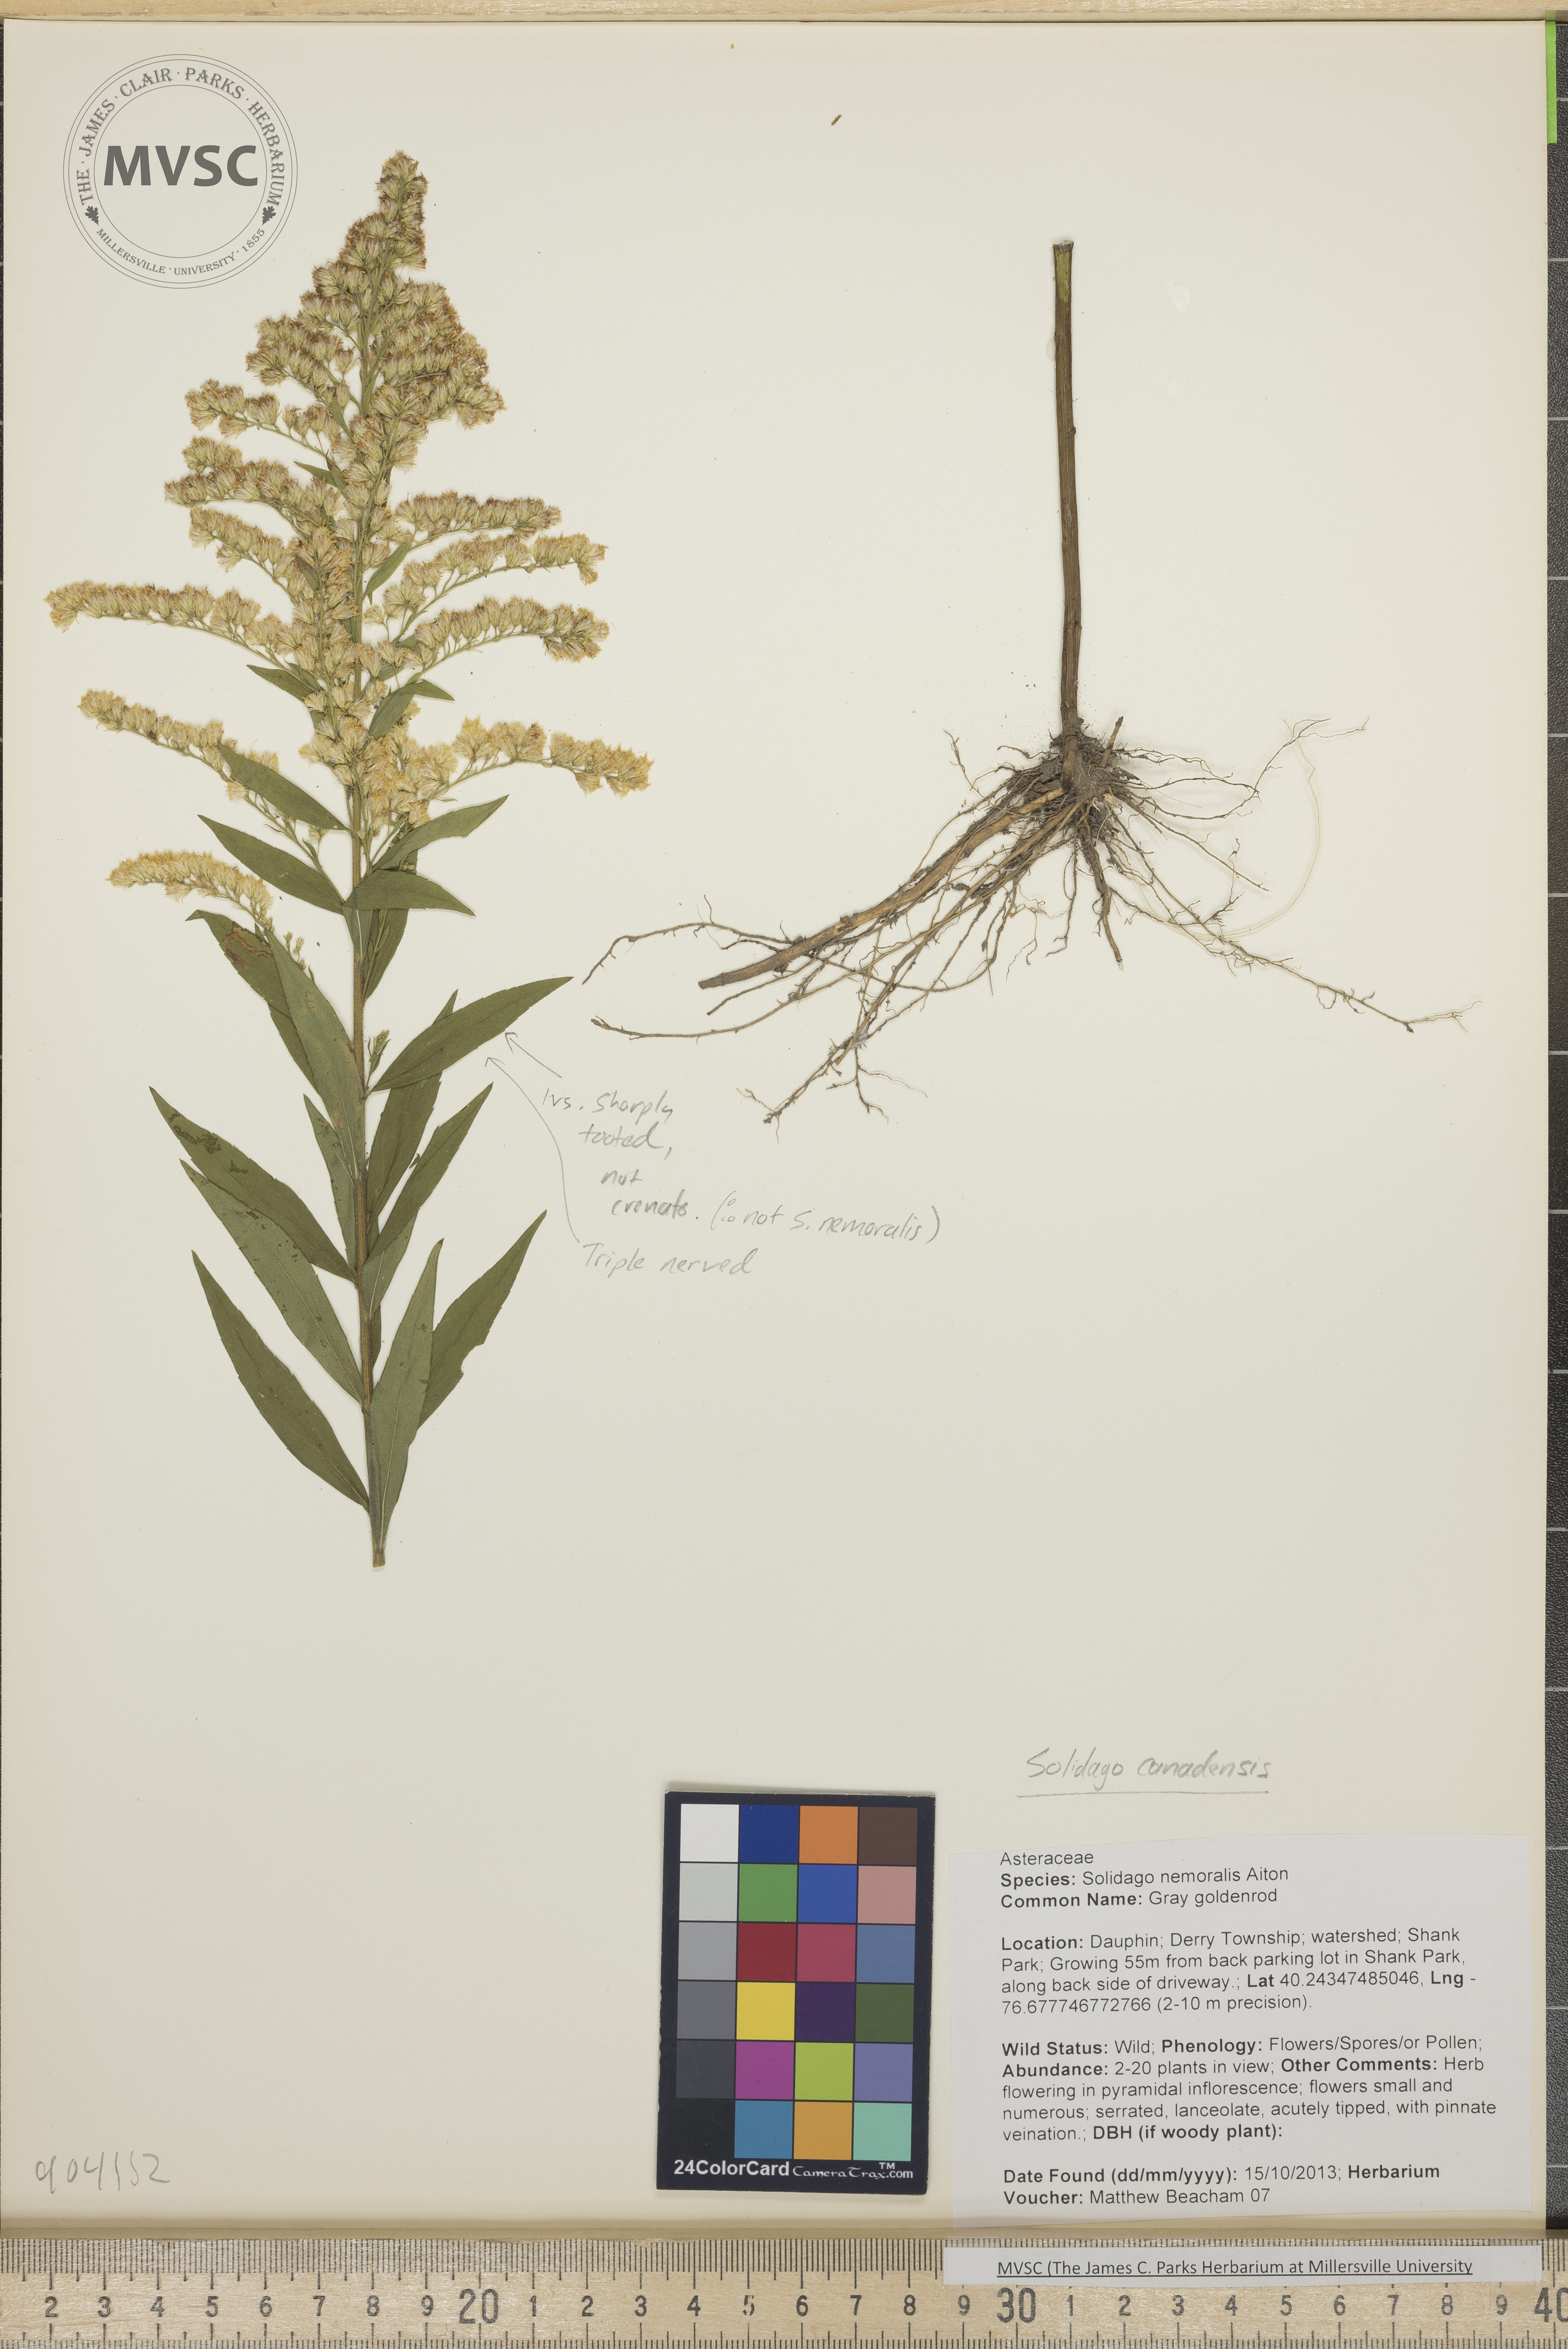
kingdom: Plantae
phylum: Tracheophyta
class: Magnoliopsida
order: Asterales
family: Asteraceae
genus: Solidago
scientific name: Solidago altissima
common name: Late goldenrod
